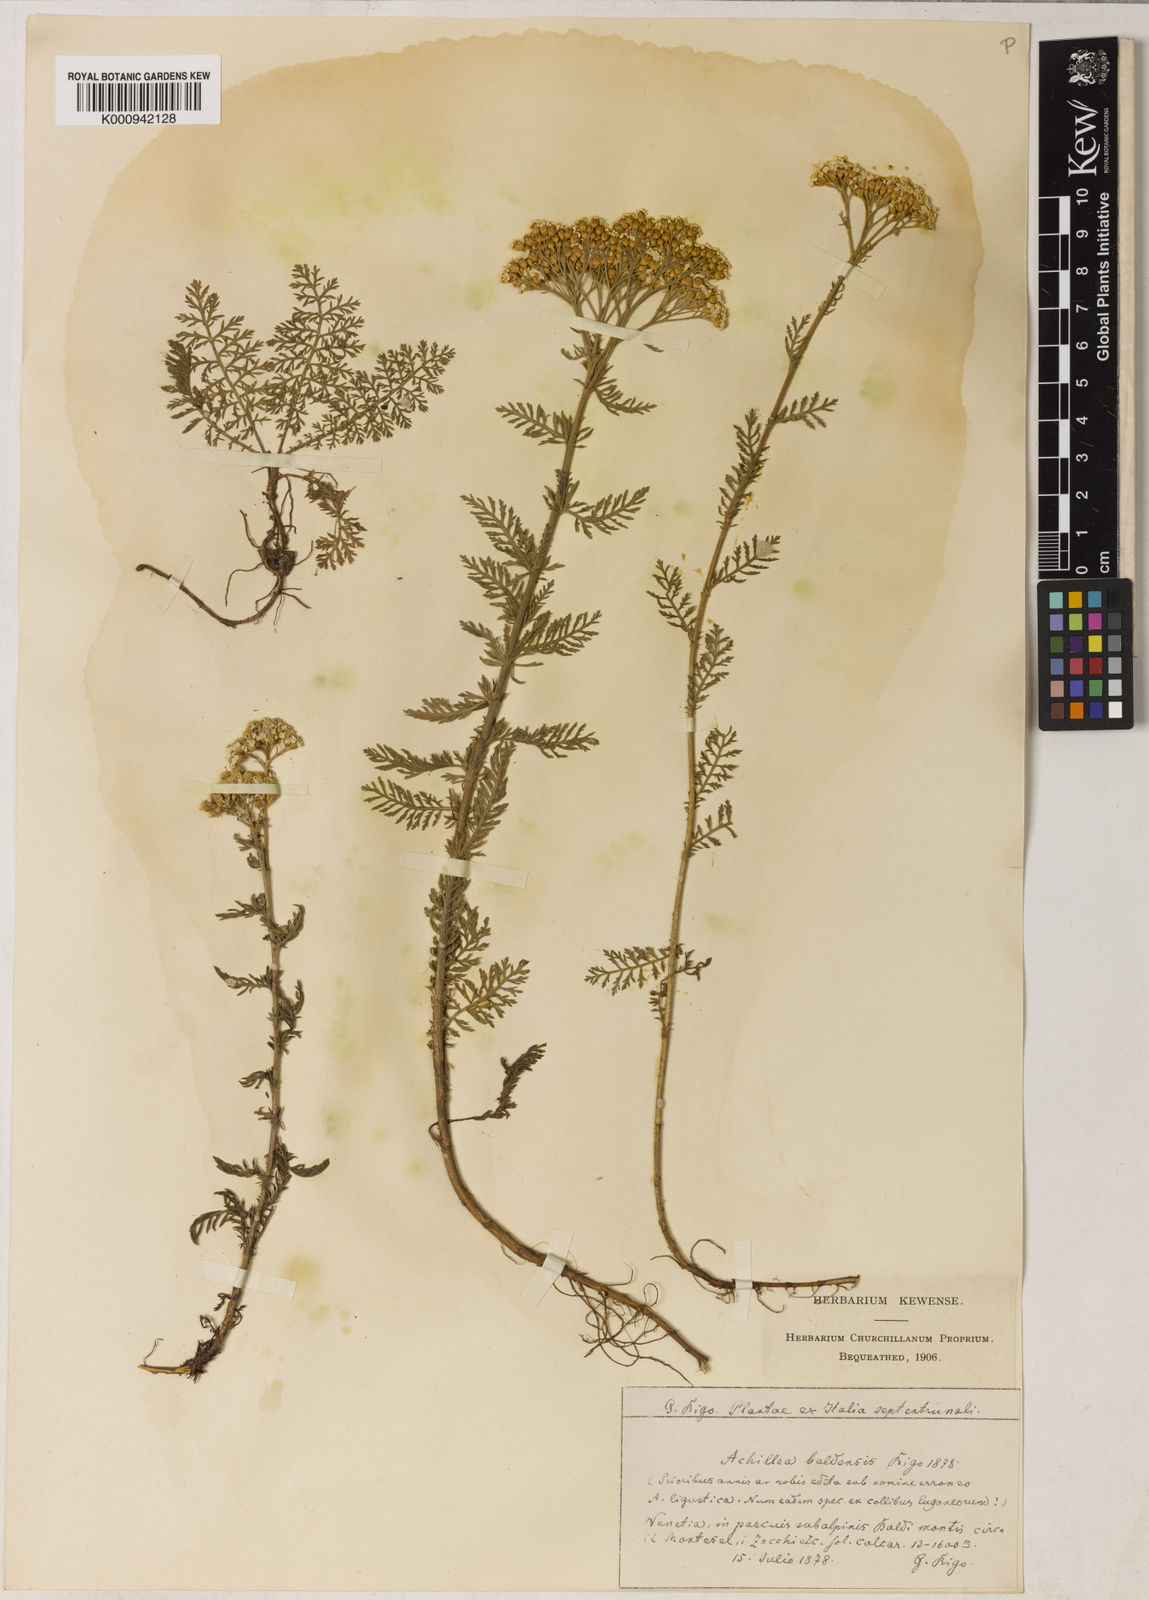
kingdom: Plantae
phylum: Tracheophyta
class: Magnoliopsida
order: Asterales
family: Asteraceae
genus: Achillea
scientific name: Achillea
